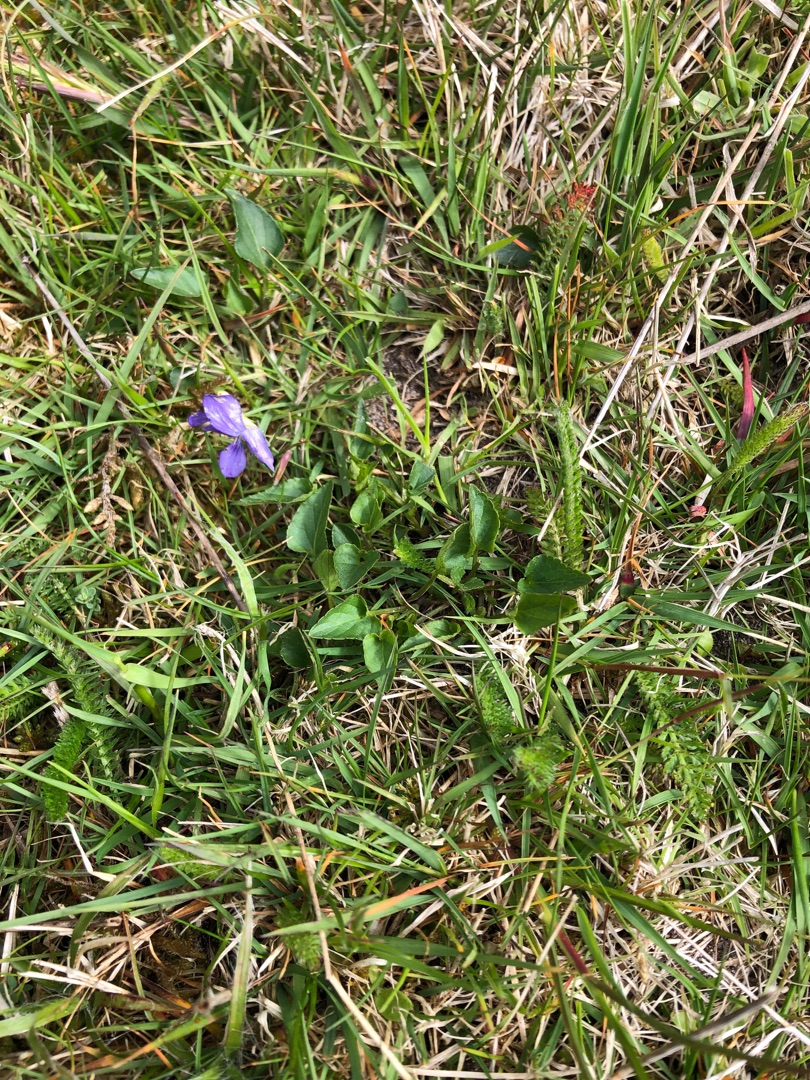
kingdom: Plantae
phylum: Tracheophyta
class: Magnoliopsida
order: Malpighiales
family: Violaceae
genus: Viola
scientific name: Viola canina
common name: Hunde-viol
